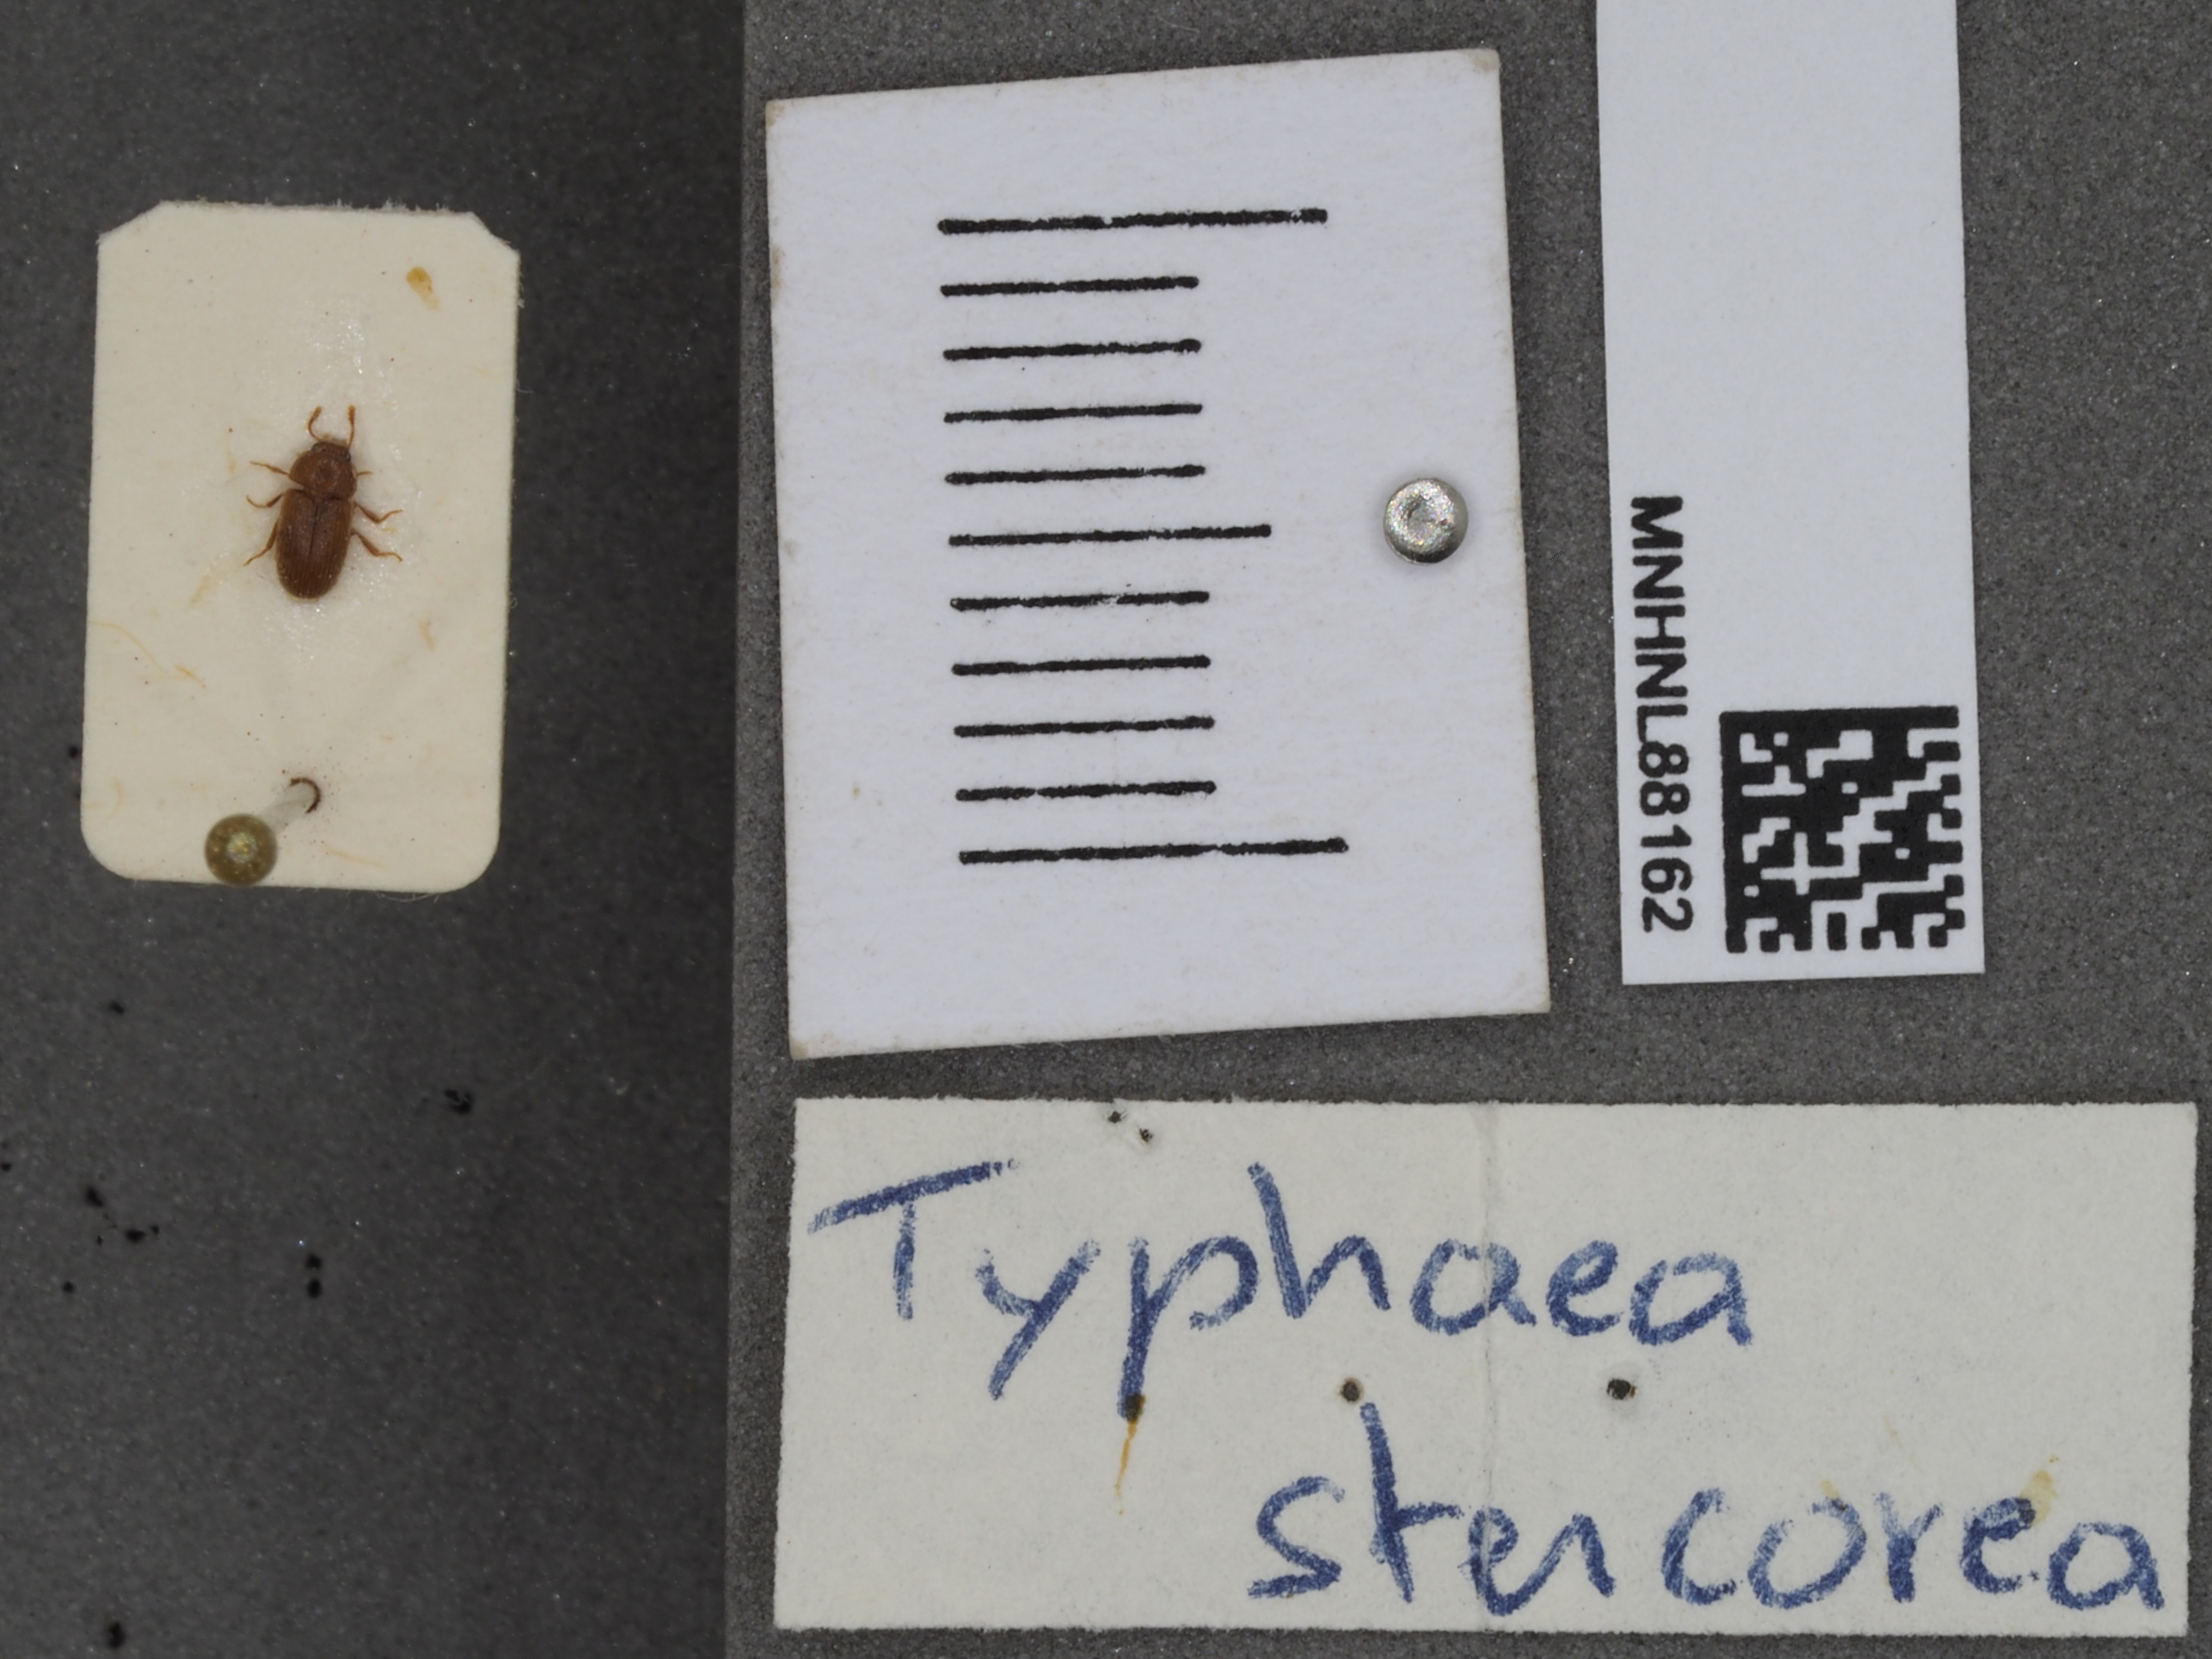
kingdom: Animalia
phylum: Arthropoda
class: Insecta
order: Coleoptera
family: Mycetophagidae
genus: Typhaea
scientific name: Typhaea stercorea
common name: Hairy fungus beetle
